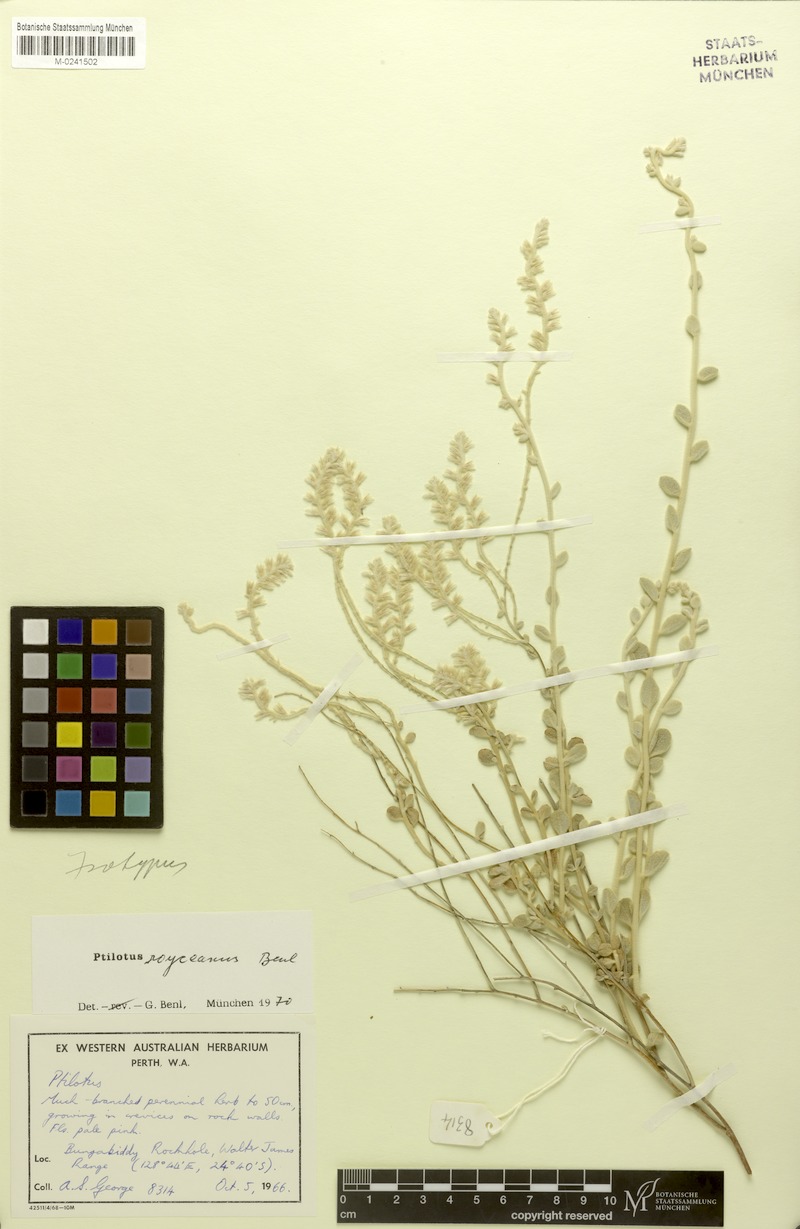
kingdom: Plantae
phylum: Tracheophyta
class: Magnoliopsida
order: Caryophyllales
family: Amaranthaceae
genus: Ptilotus
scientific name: Ptilotus royceanus
